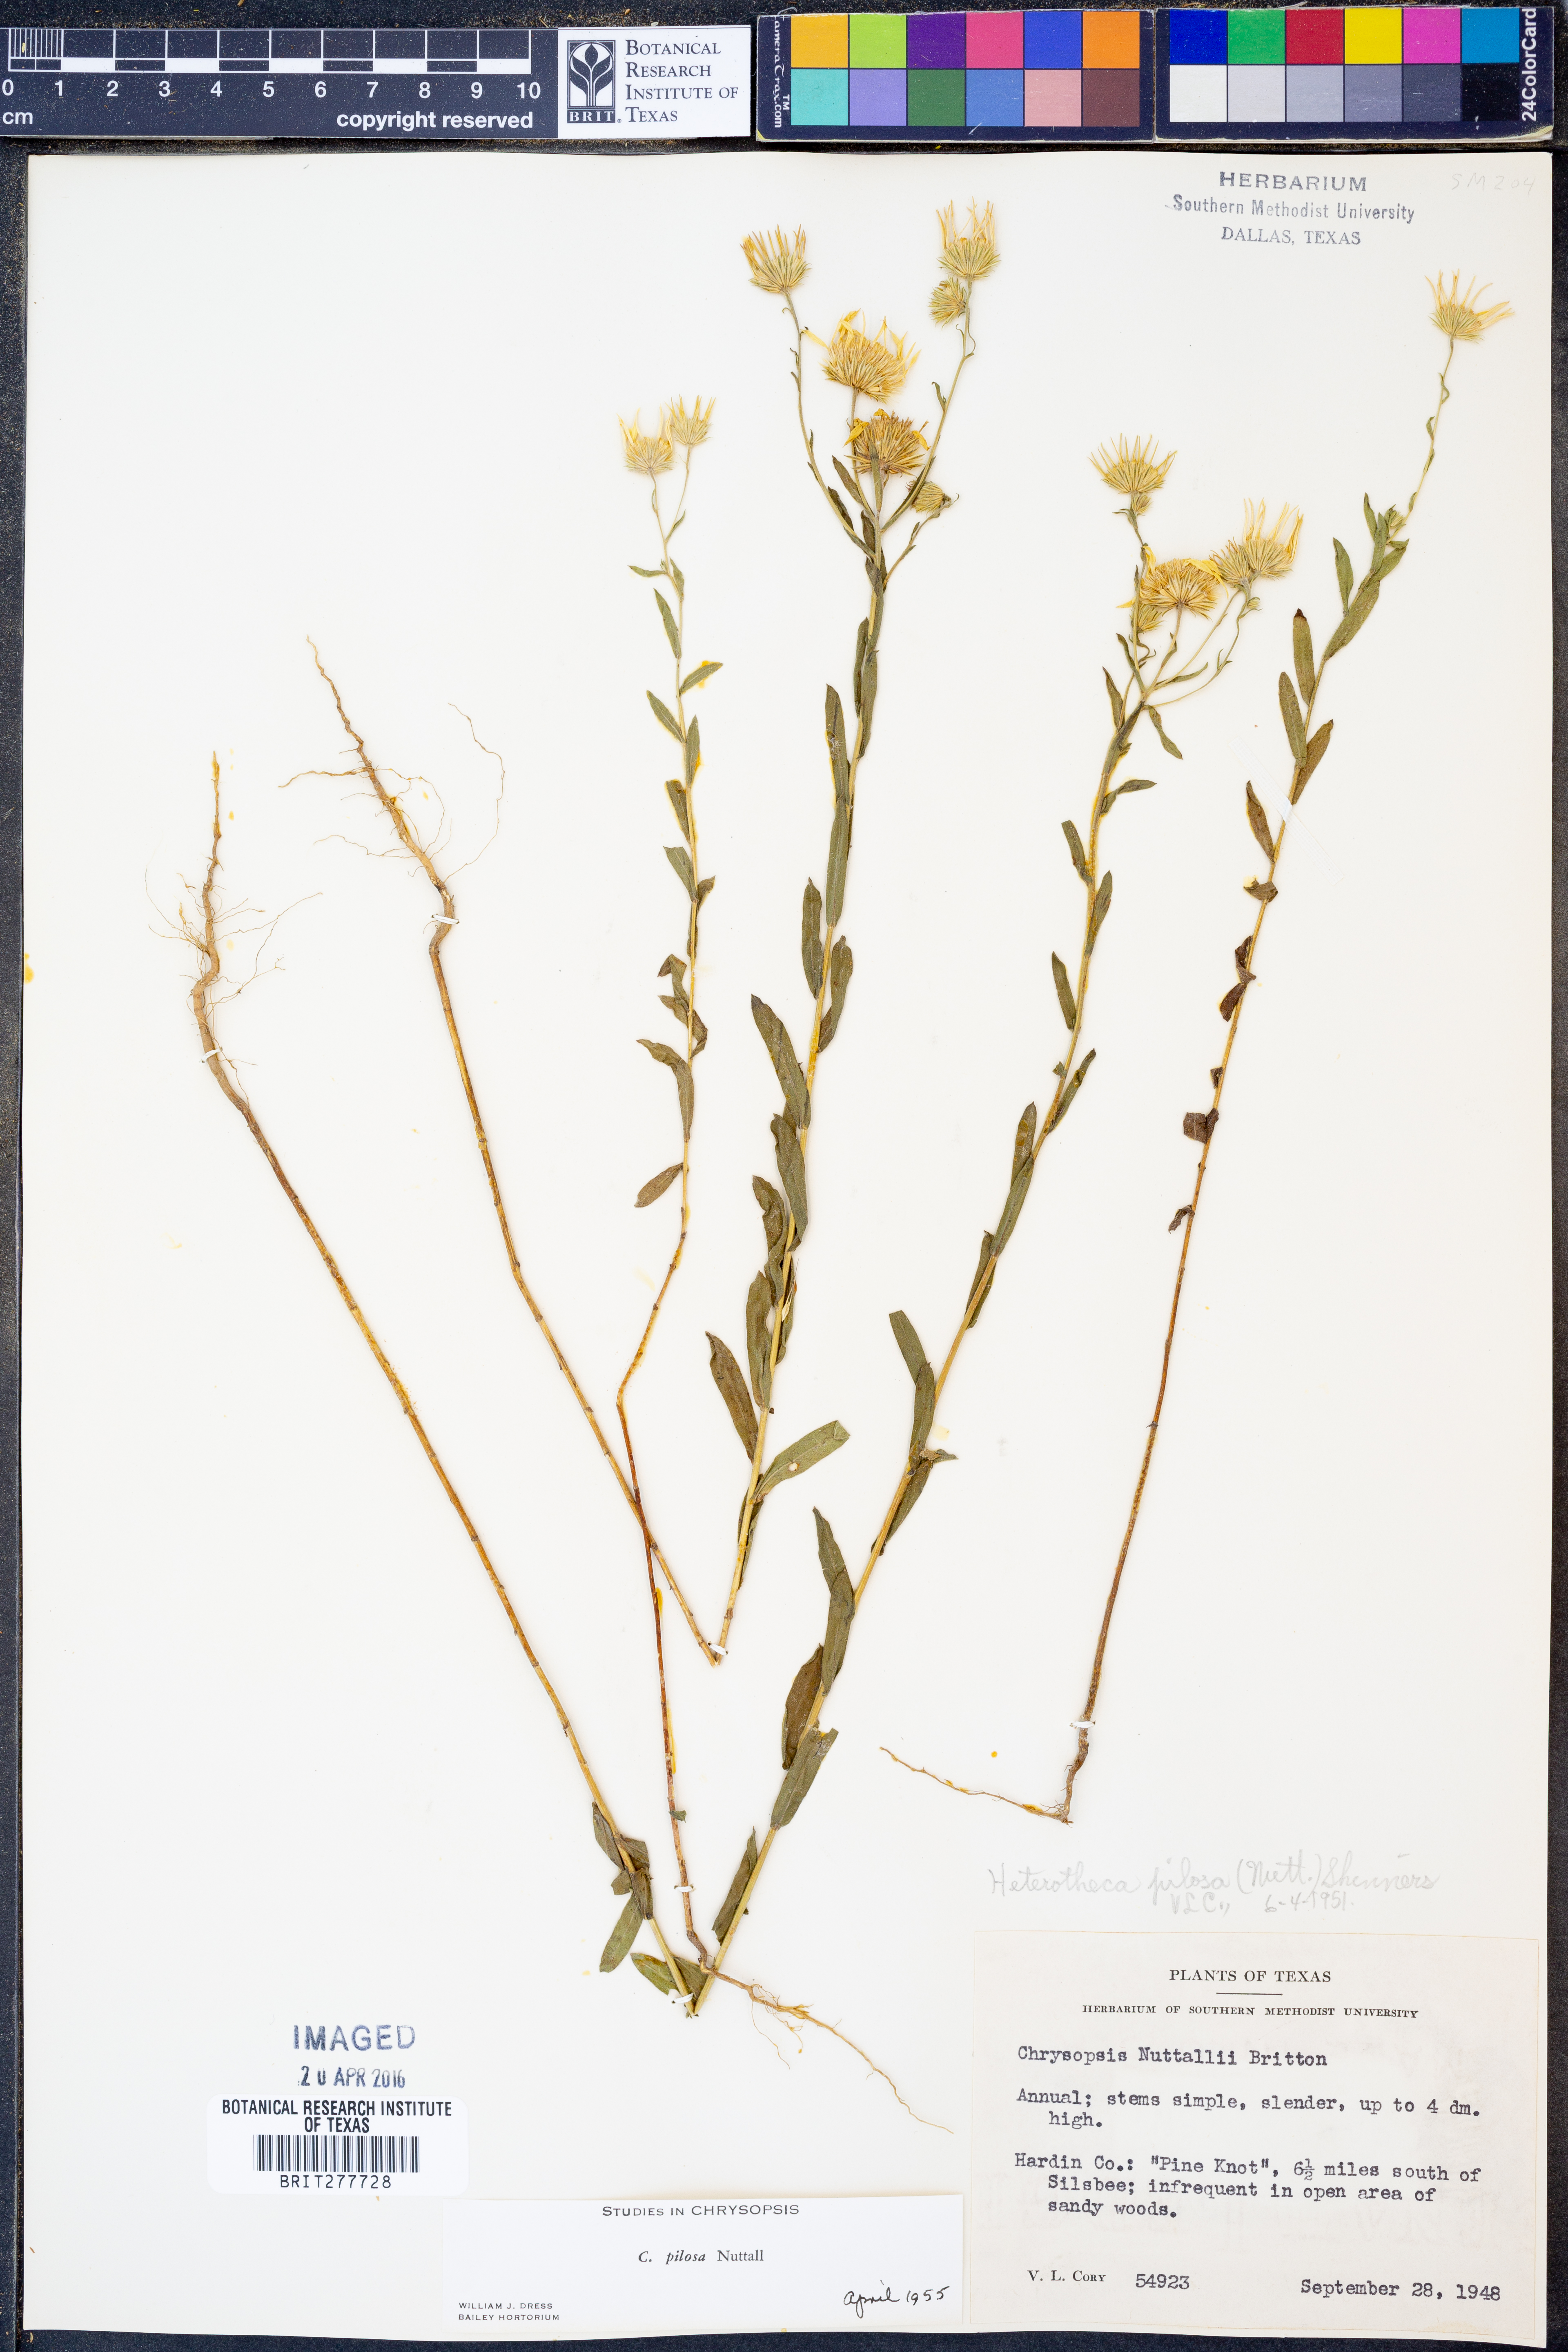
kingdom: Plantae
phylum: Tracheophyta
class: Magnoliopsida
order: Asterales
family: Asteraceae
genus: Bradburia
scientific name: Bradburia pilosa
